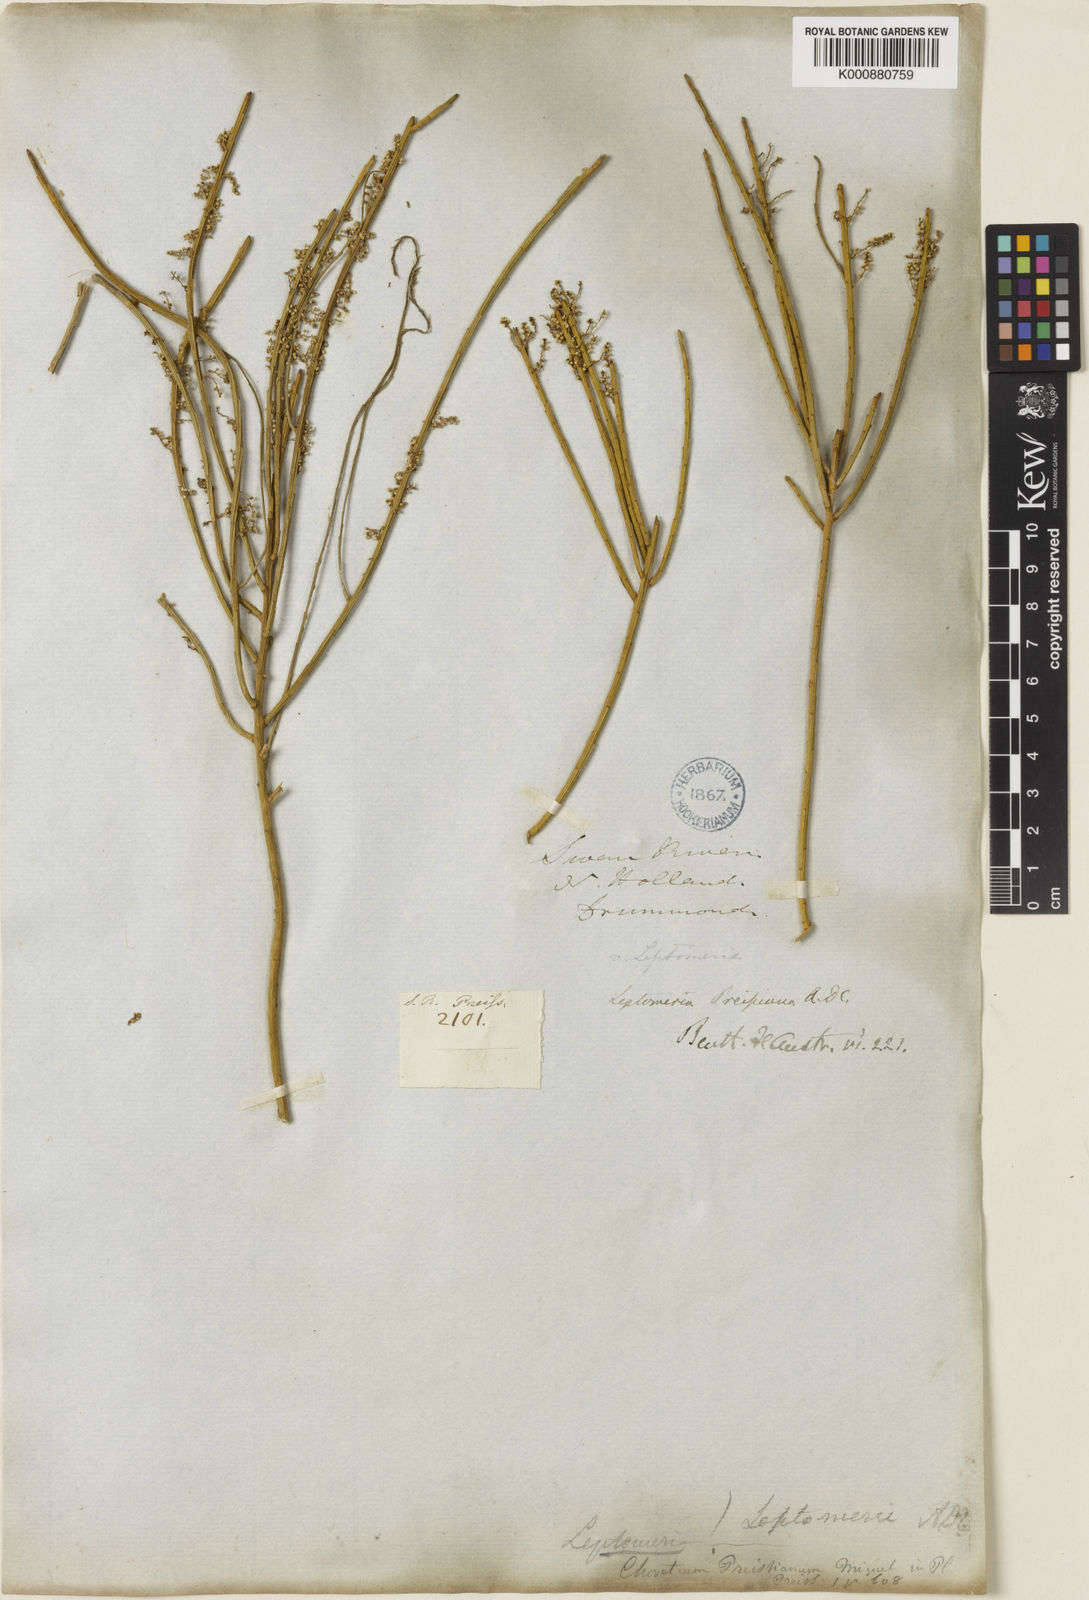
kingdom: Plantae
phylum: Tracheophyta
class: Magnoliopsida
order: Santalales
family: Amphorogynaceae
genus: Leptomeria
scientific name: Leptomeria preissiana
